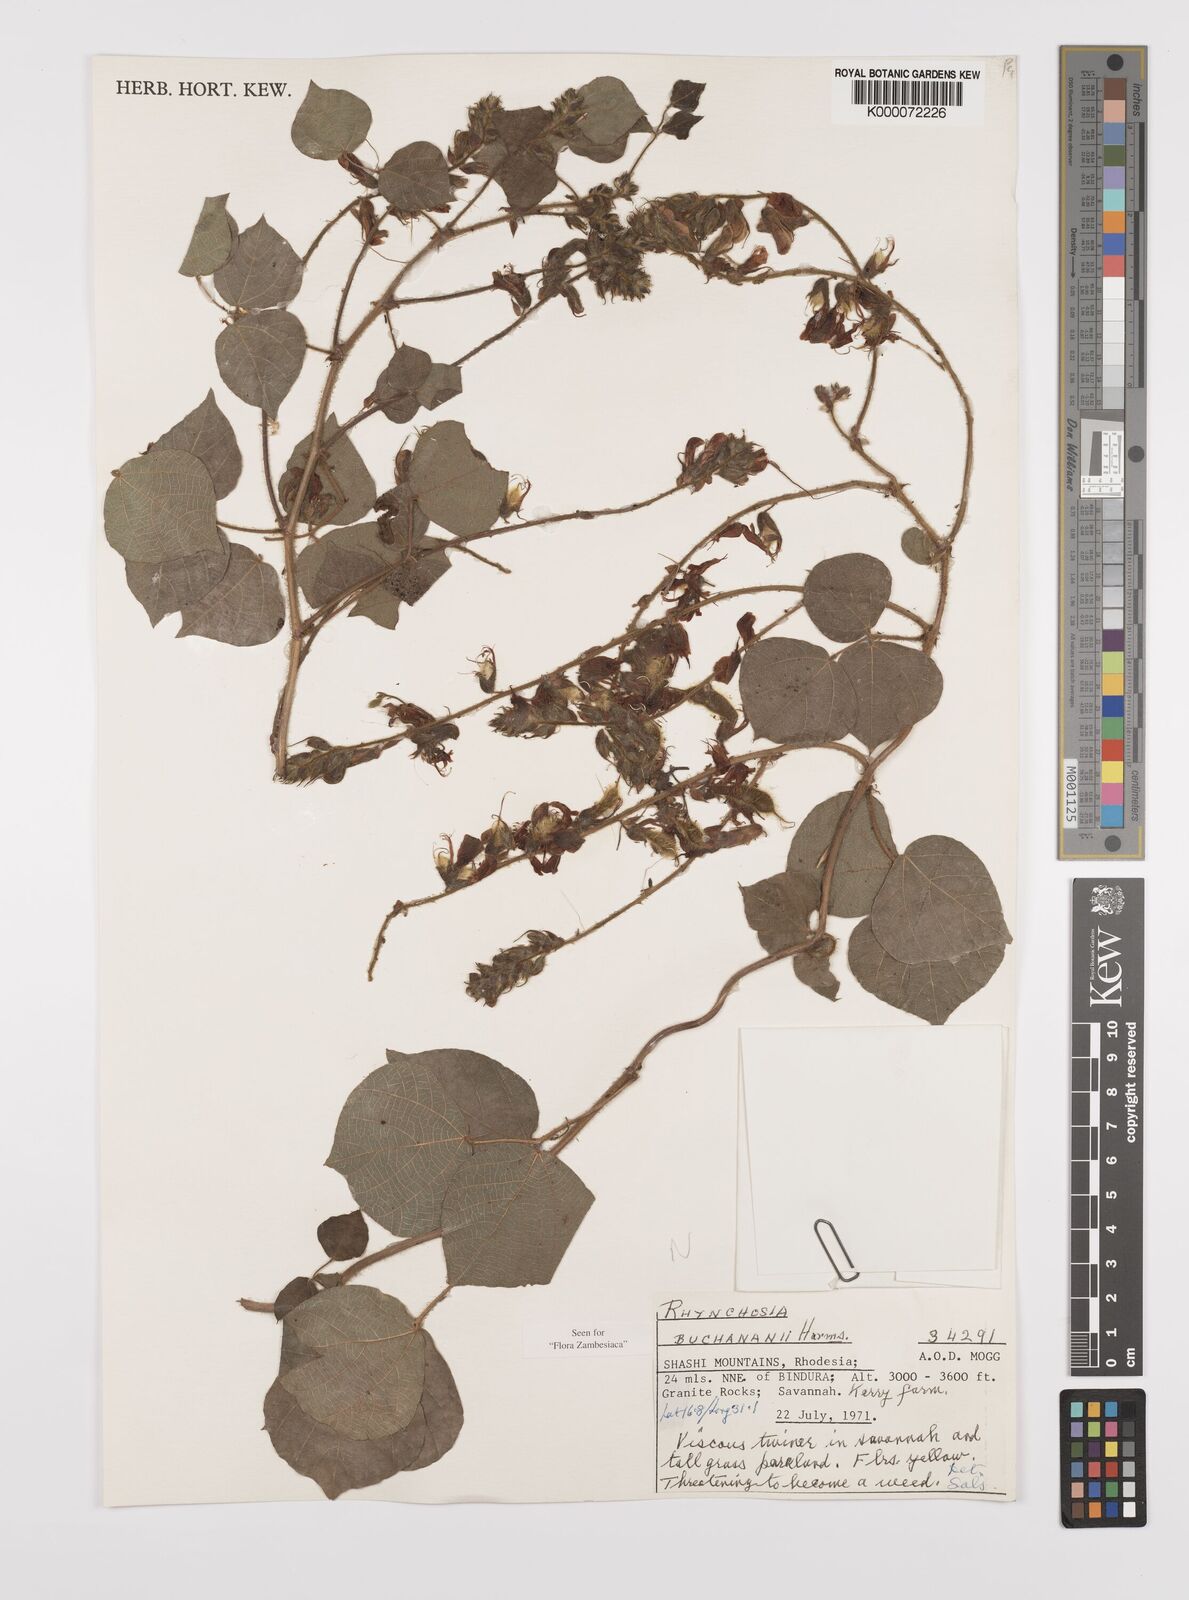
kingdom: Plantae
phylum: Tracheophyta
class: Magnoliopsida
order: Fabales
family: Fabaceae
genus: Rhynchosia
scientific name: Rhynchosia buchananii
